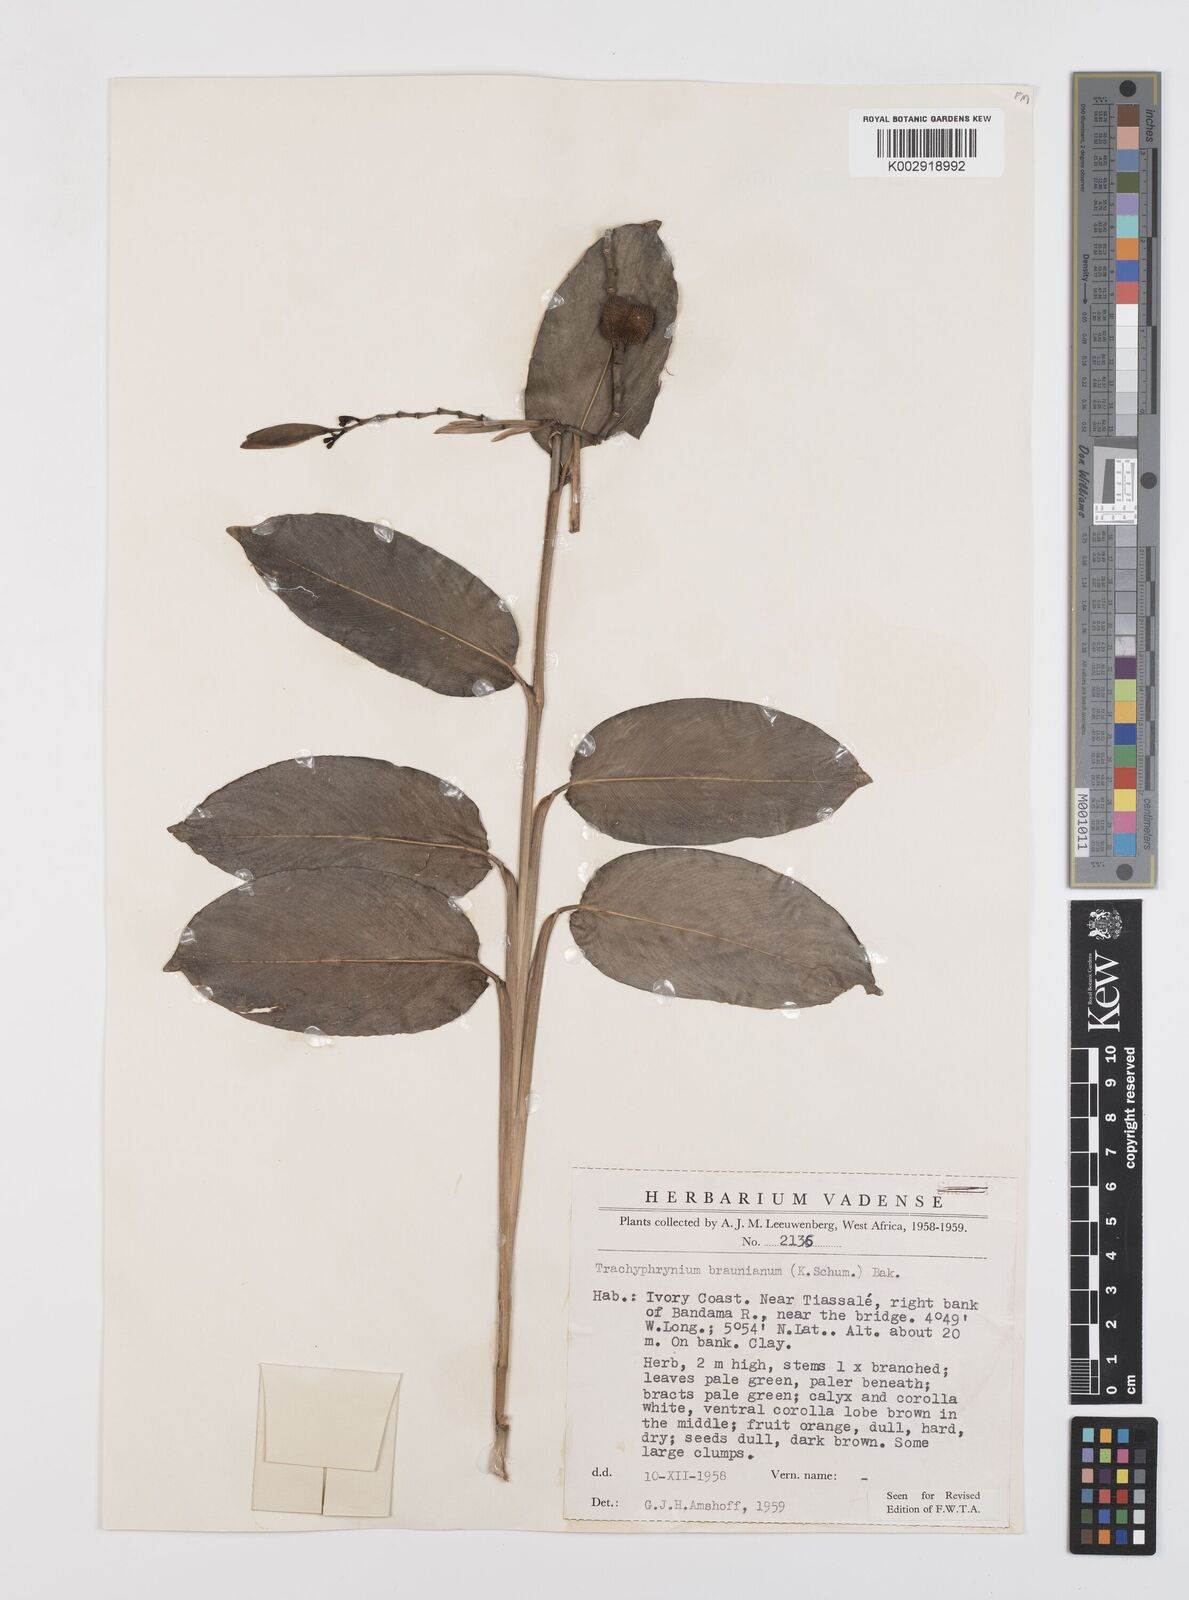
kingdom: Plantae
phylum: Tracheophyta
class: Liliopsida
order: Zingiberales
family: Marantaceae
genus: Trachyphrynium
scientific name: Trachyphrynium braunianum
